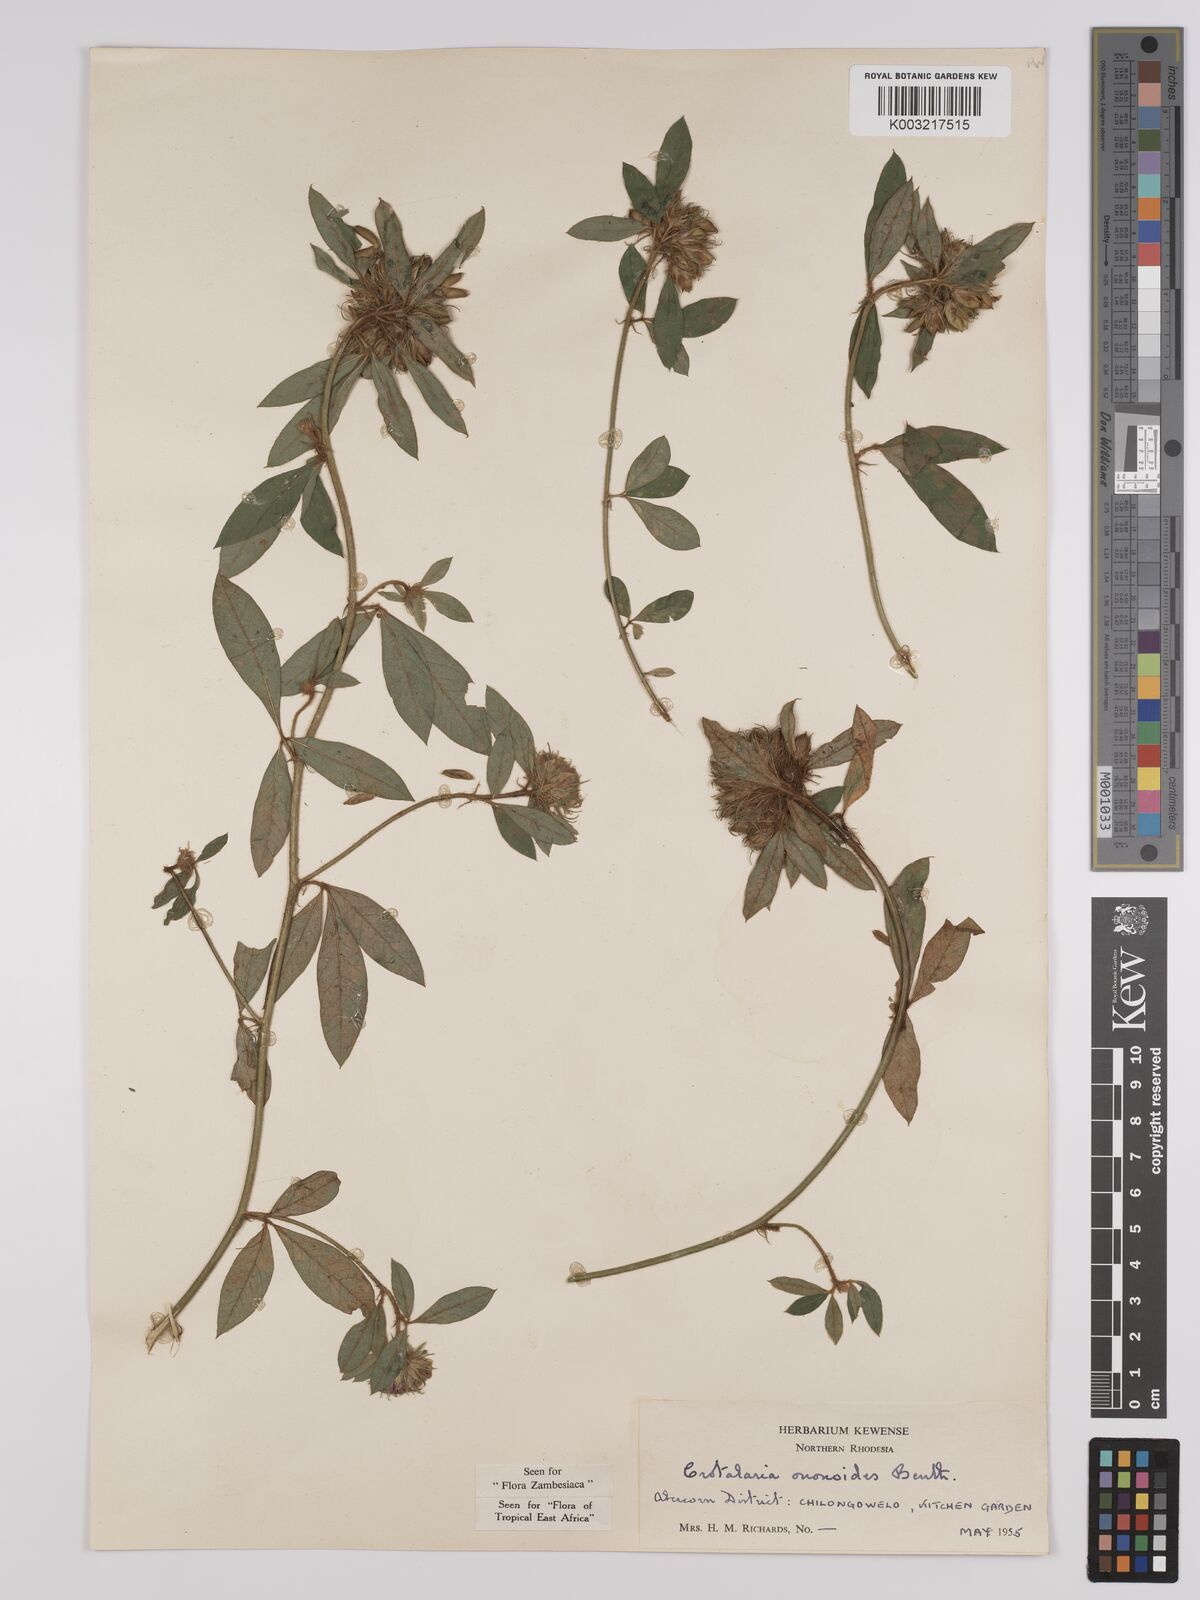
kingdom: Plantae
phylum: Tracheophyta
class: Magnoliopsida
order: Fabales
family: Fabaceae
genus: Crotalaria
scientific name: Crotalaria ononoides
